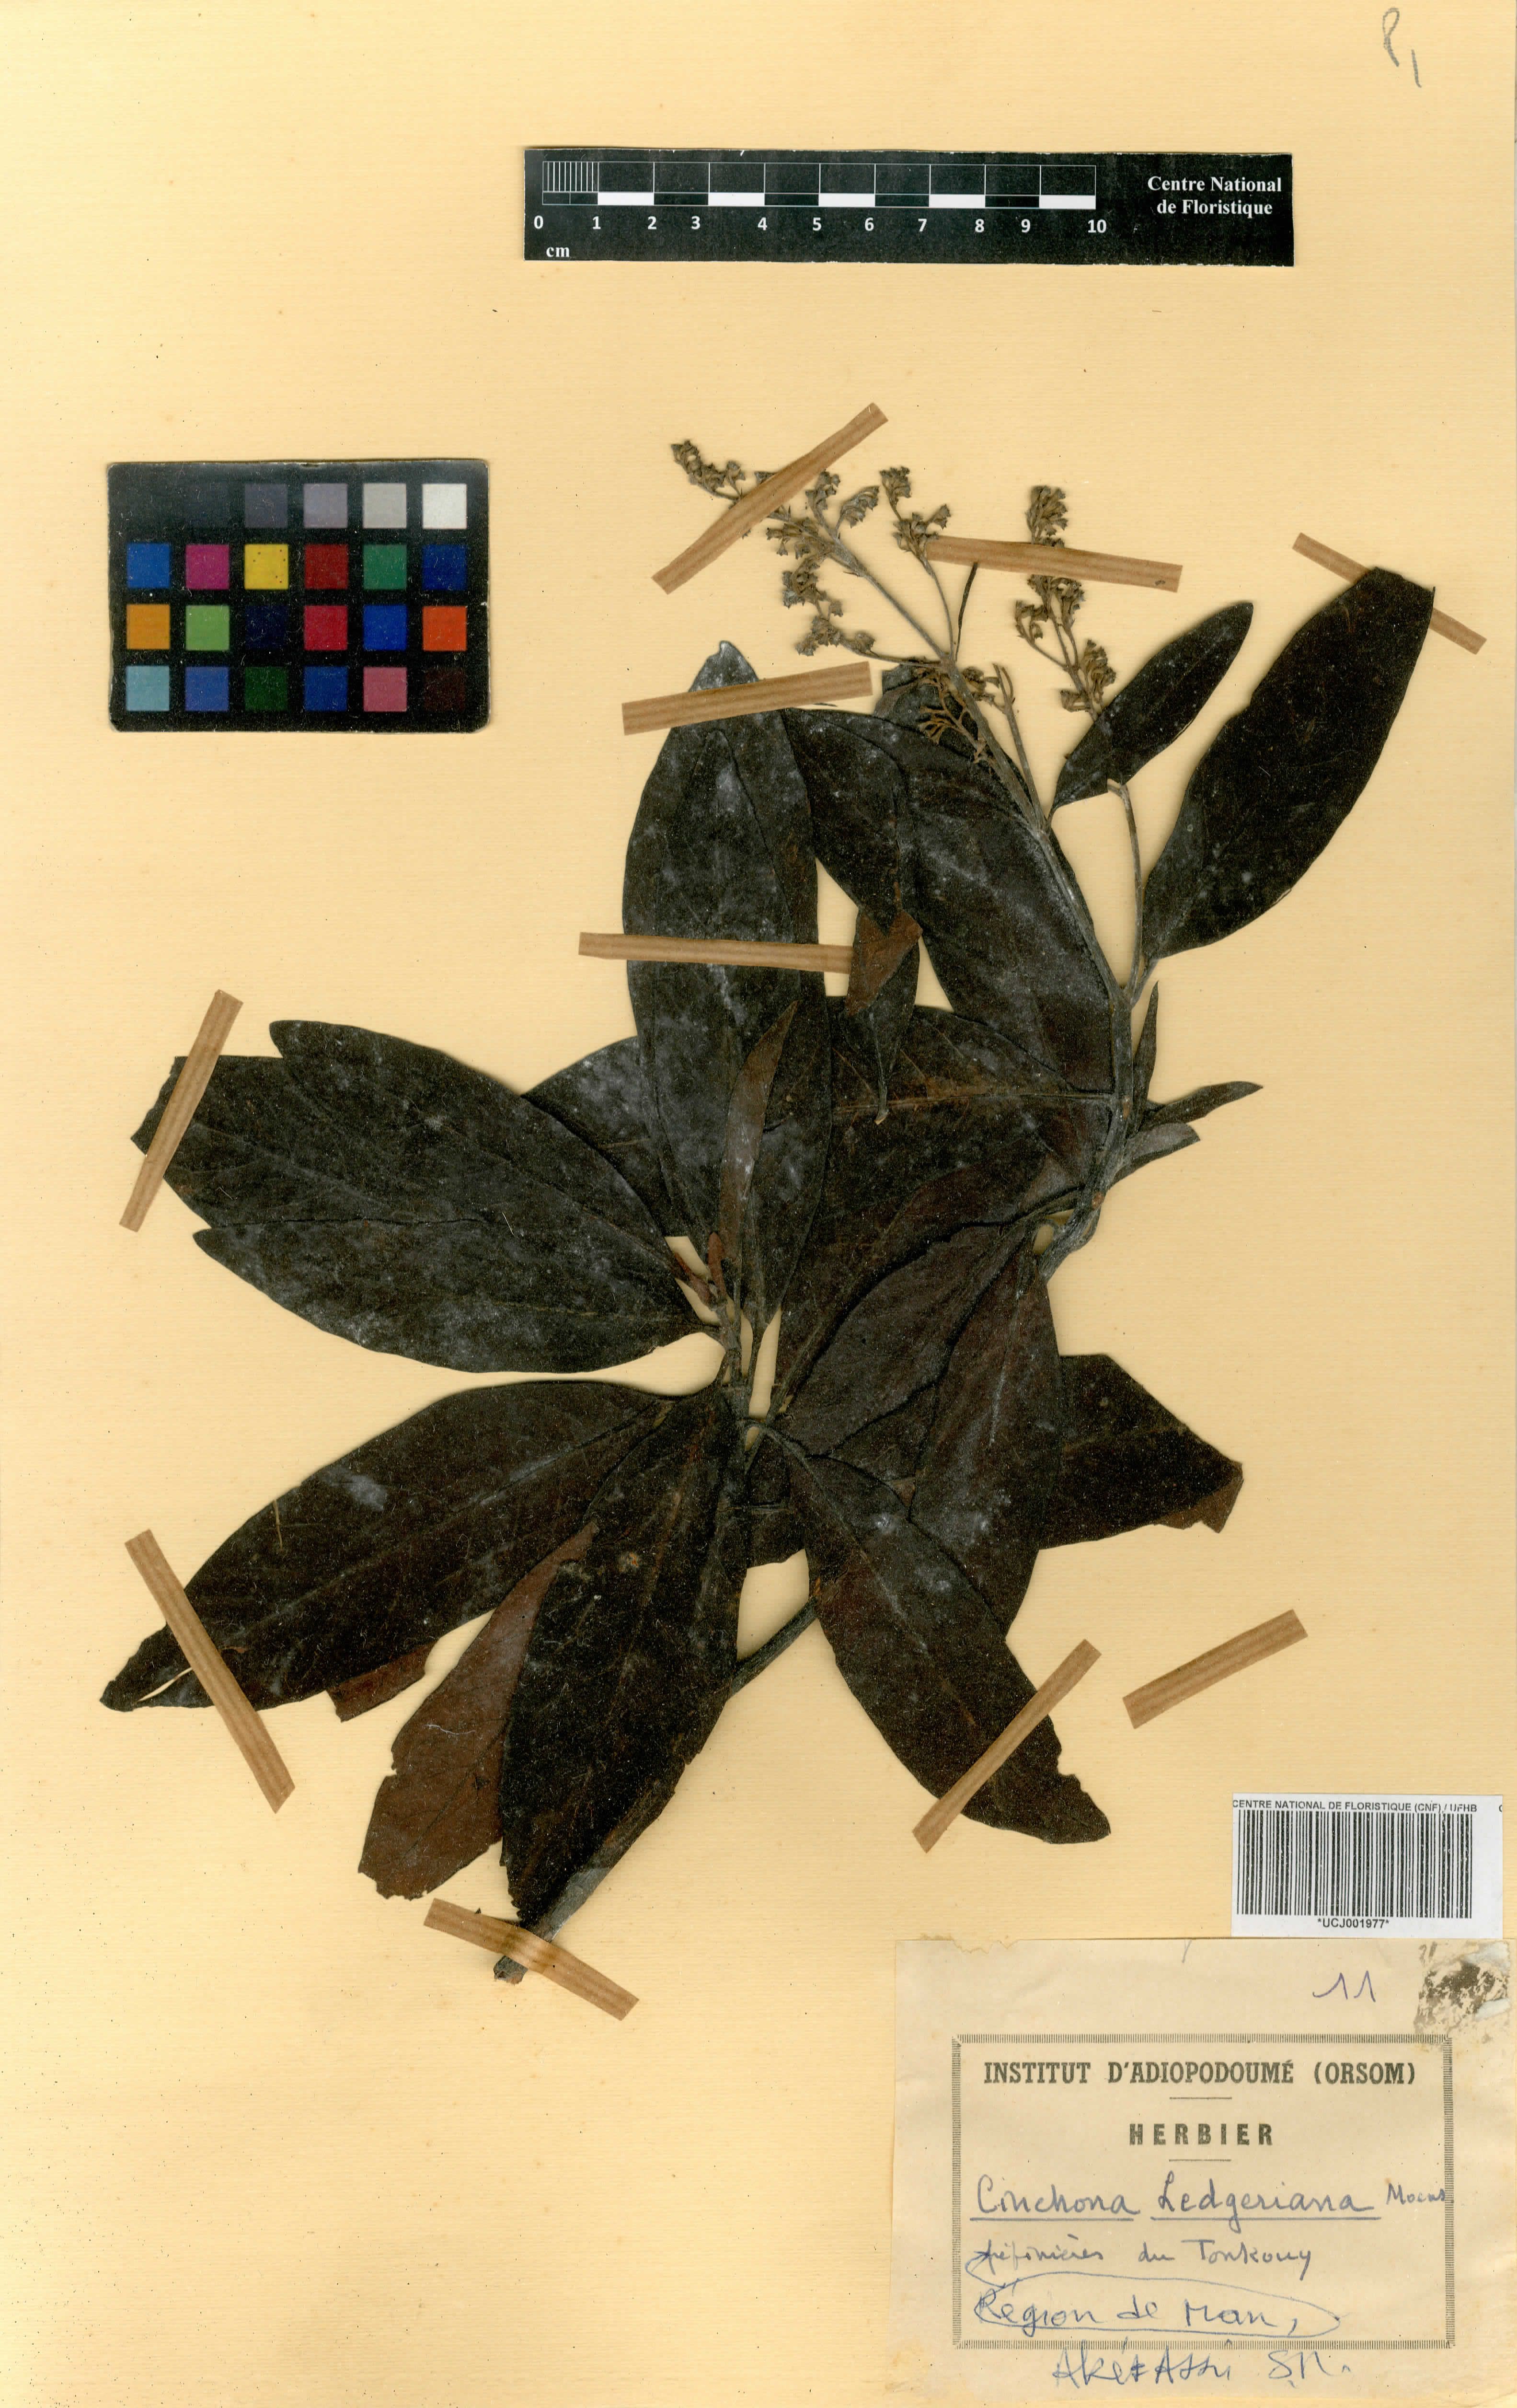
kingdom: Plantae
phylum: Tracheophyta
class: Magnoliopsida
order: Gentianales
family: Rubiaceae
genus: Cinchona
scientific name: Cinchona calisaya
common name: Ledgerbark
